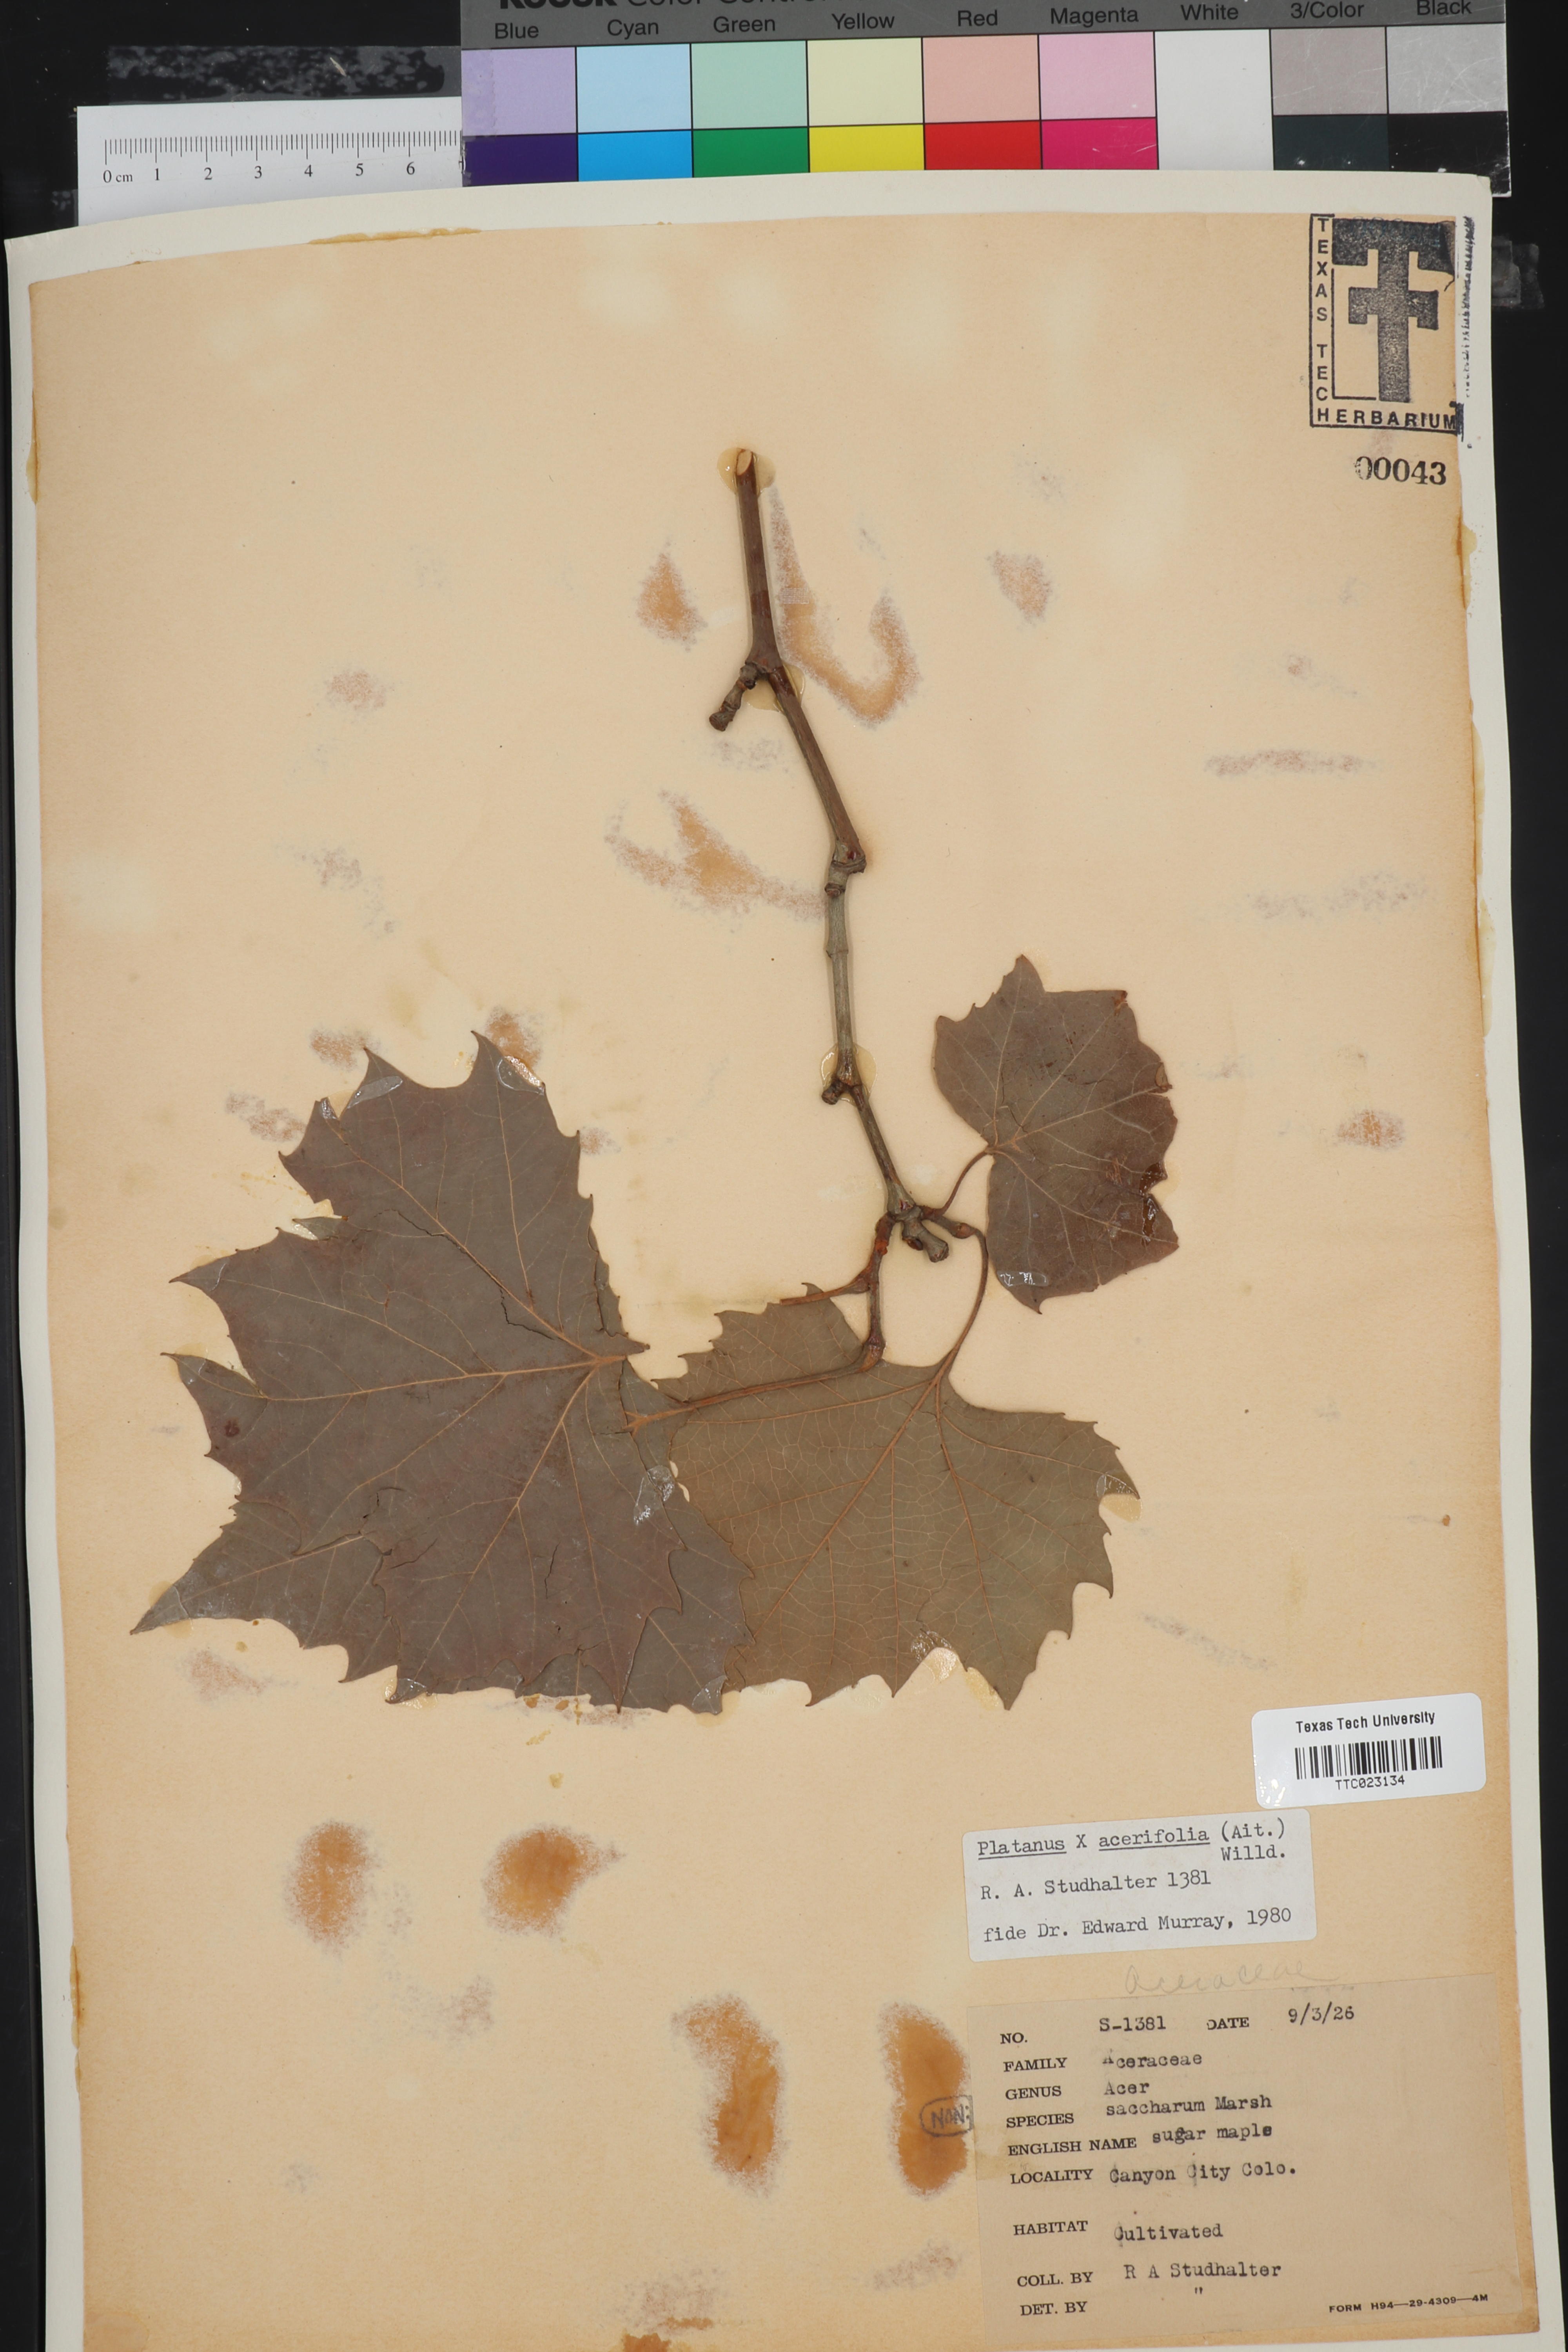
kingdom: Plantae
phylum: Tracheophyta
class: Magnoliopsida
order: Proteales
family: Platanaceae
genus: Platanus
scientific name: Platanus hispanica
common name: London plane
